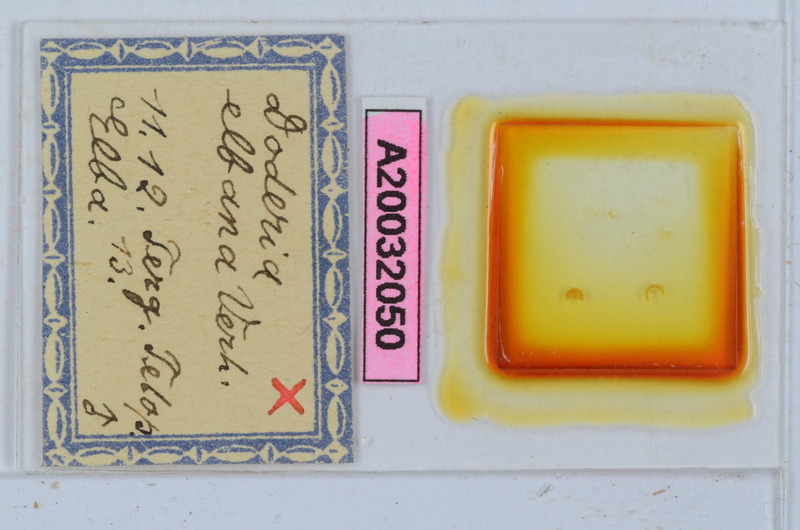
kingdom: Animalia
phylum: Arthropoda
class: Diplopoda
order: Glomerida
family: Glomeridae
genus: Doderia
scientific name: Doderia elbana
